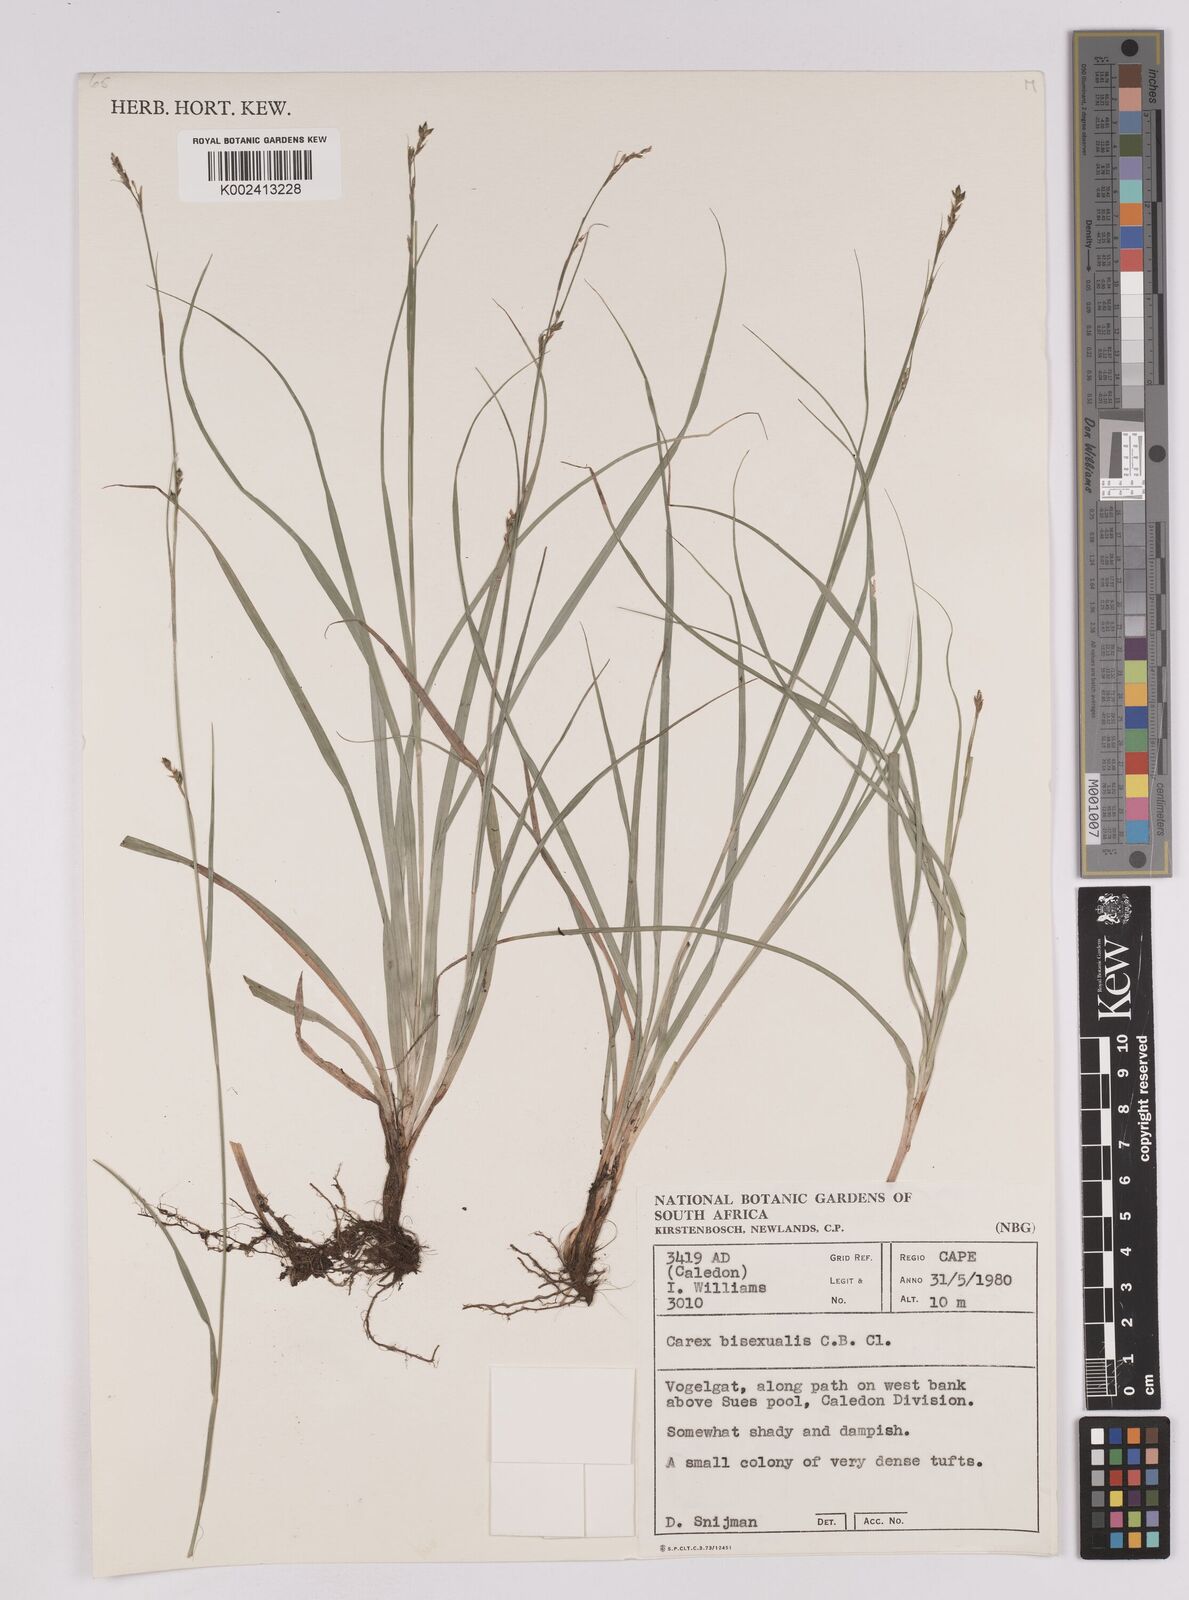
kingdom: Plantae
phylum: Tracheophyta
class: Liliopsida
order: Poales
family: Cyperaceae
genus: Carex
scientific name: Carex schimperiana
